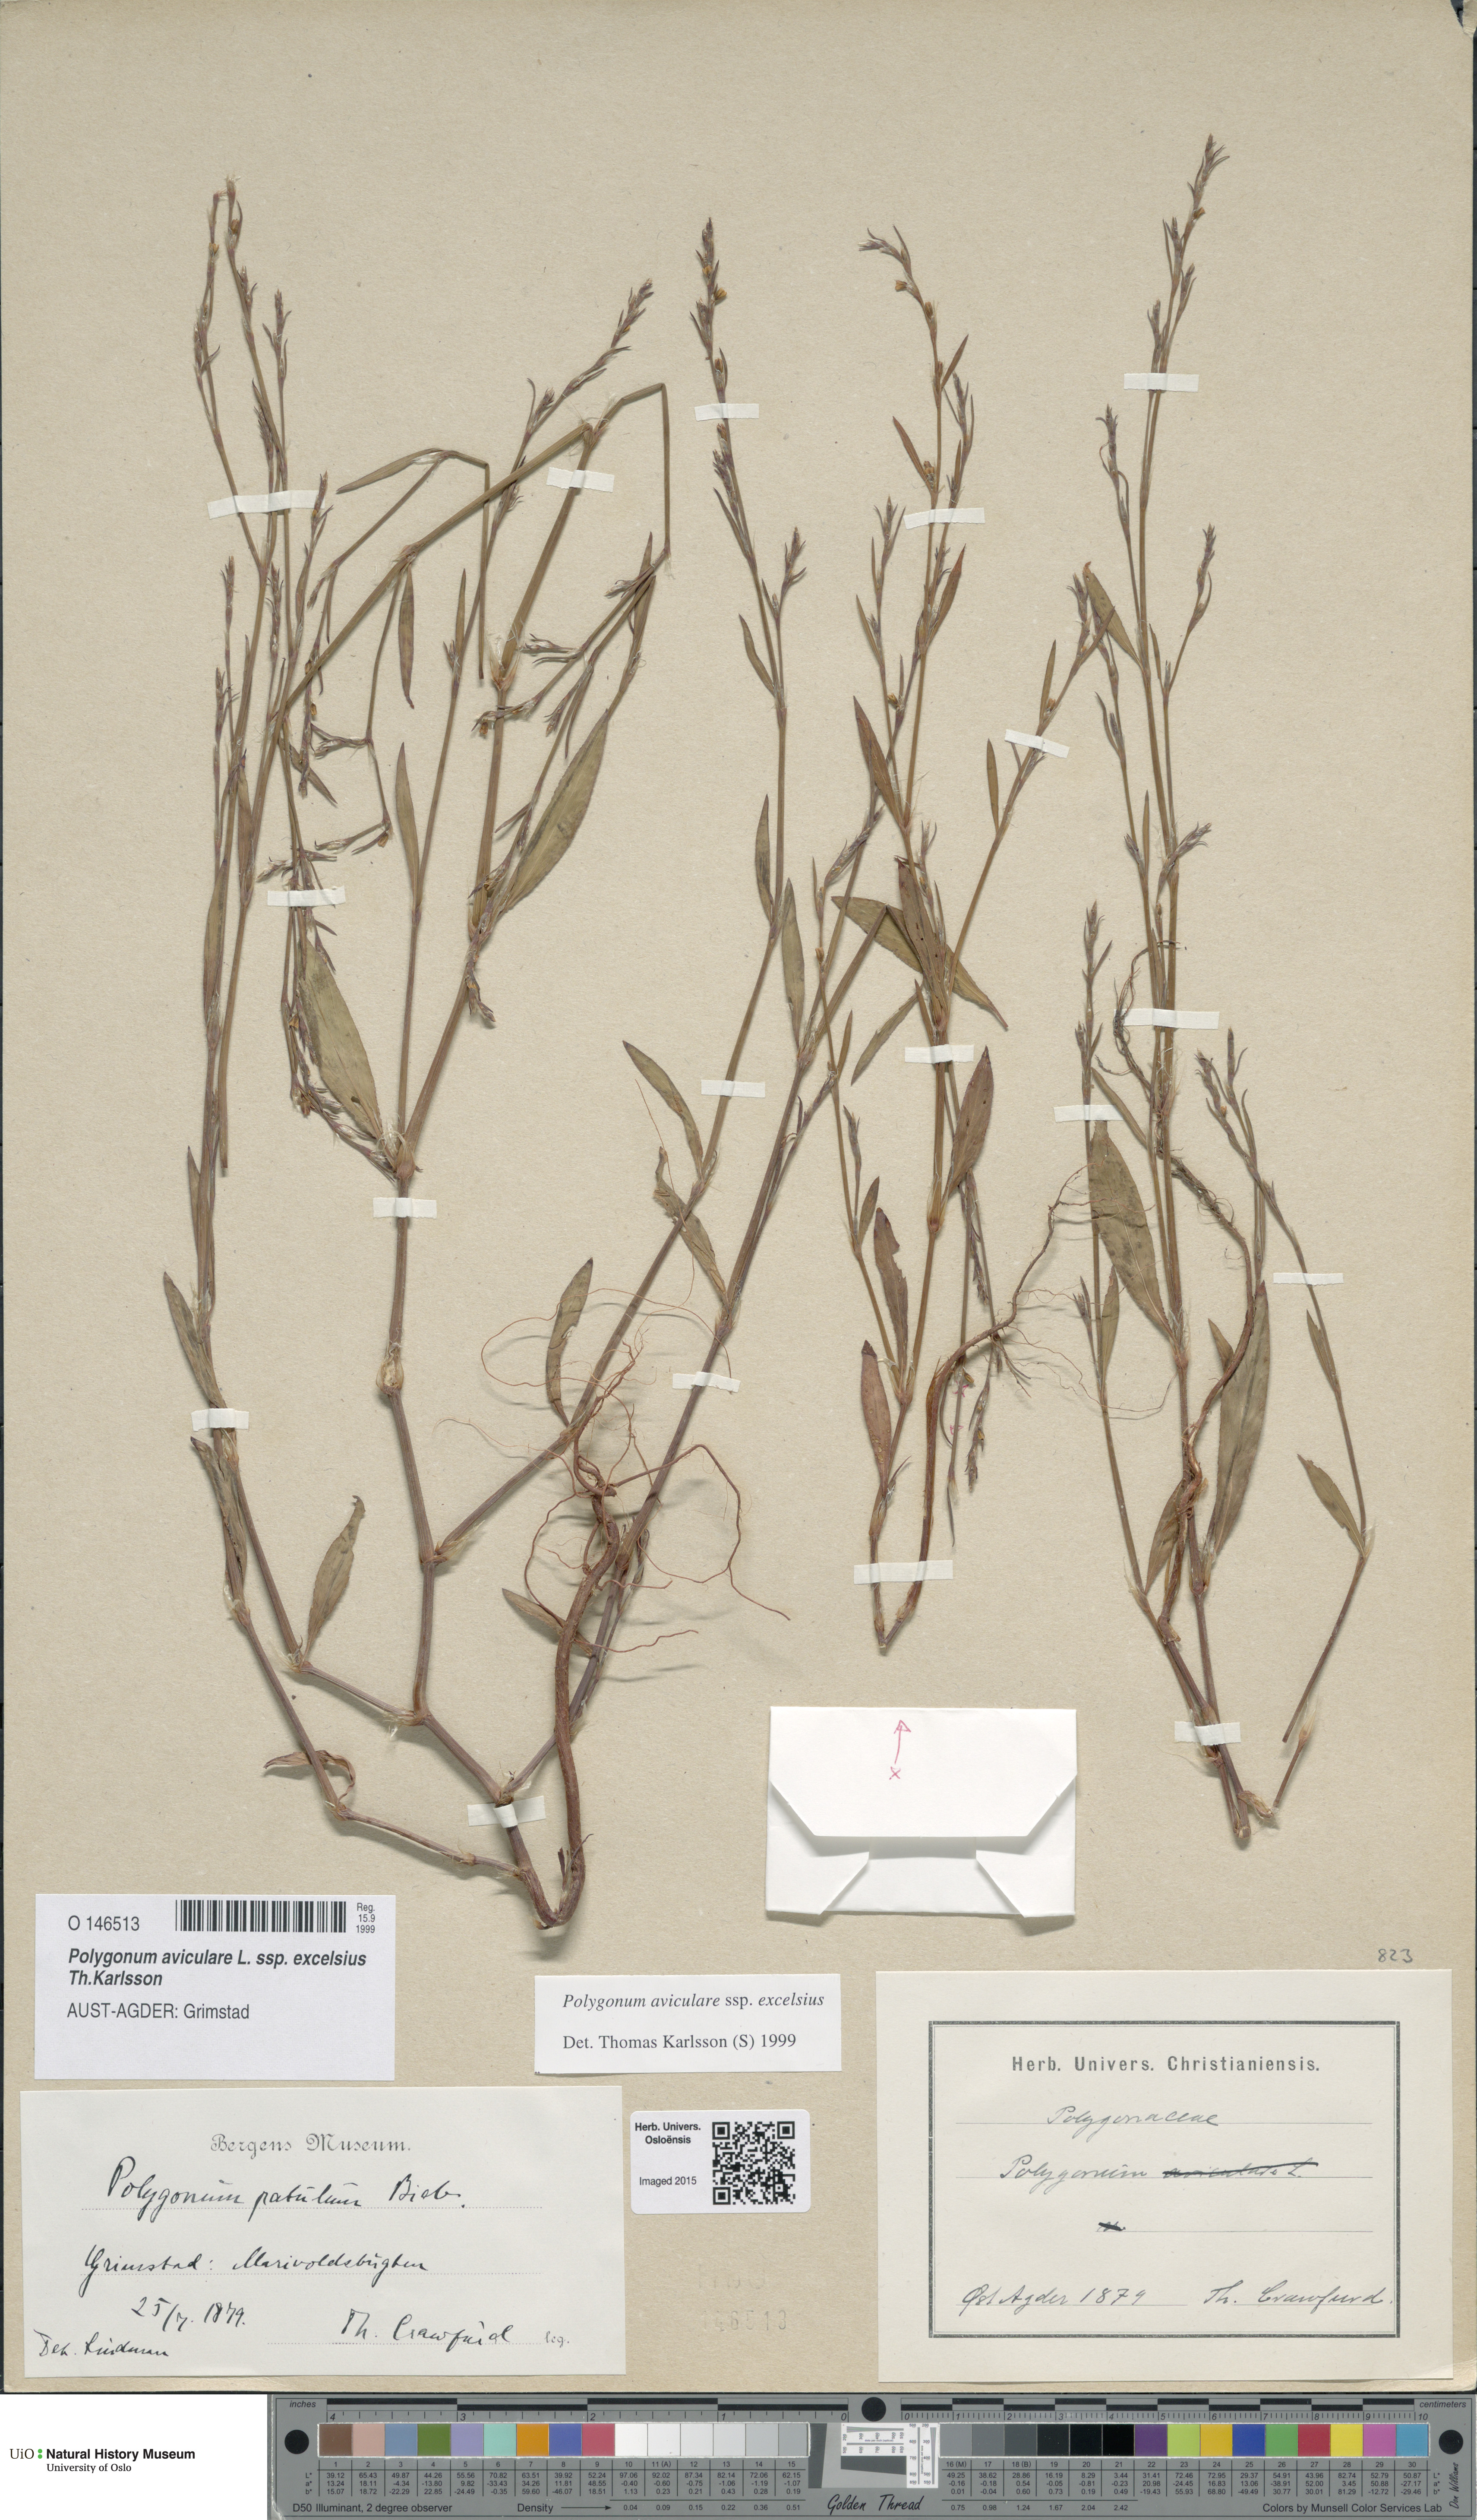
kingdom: Plantae
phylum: Tracheophyta
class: Magnoliopsida
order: Caryophyllales
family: Polygonaceae
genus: Polygonum
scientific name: Polygonum excelsius
